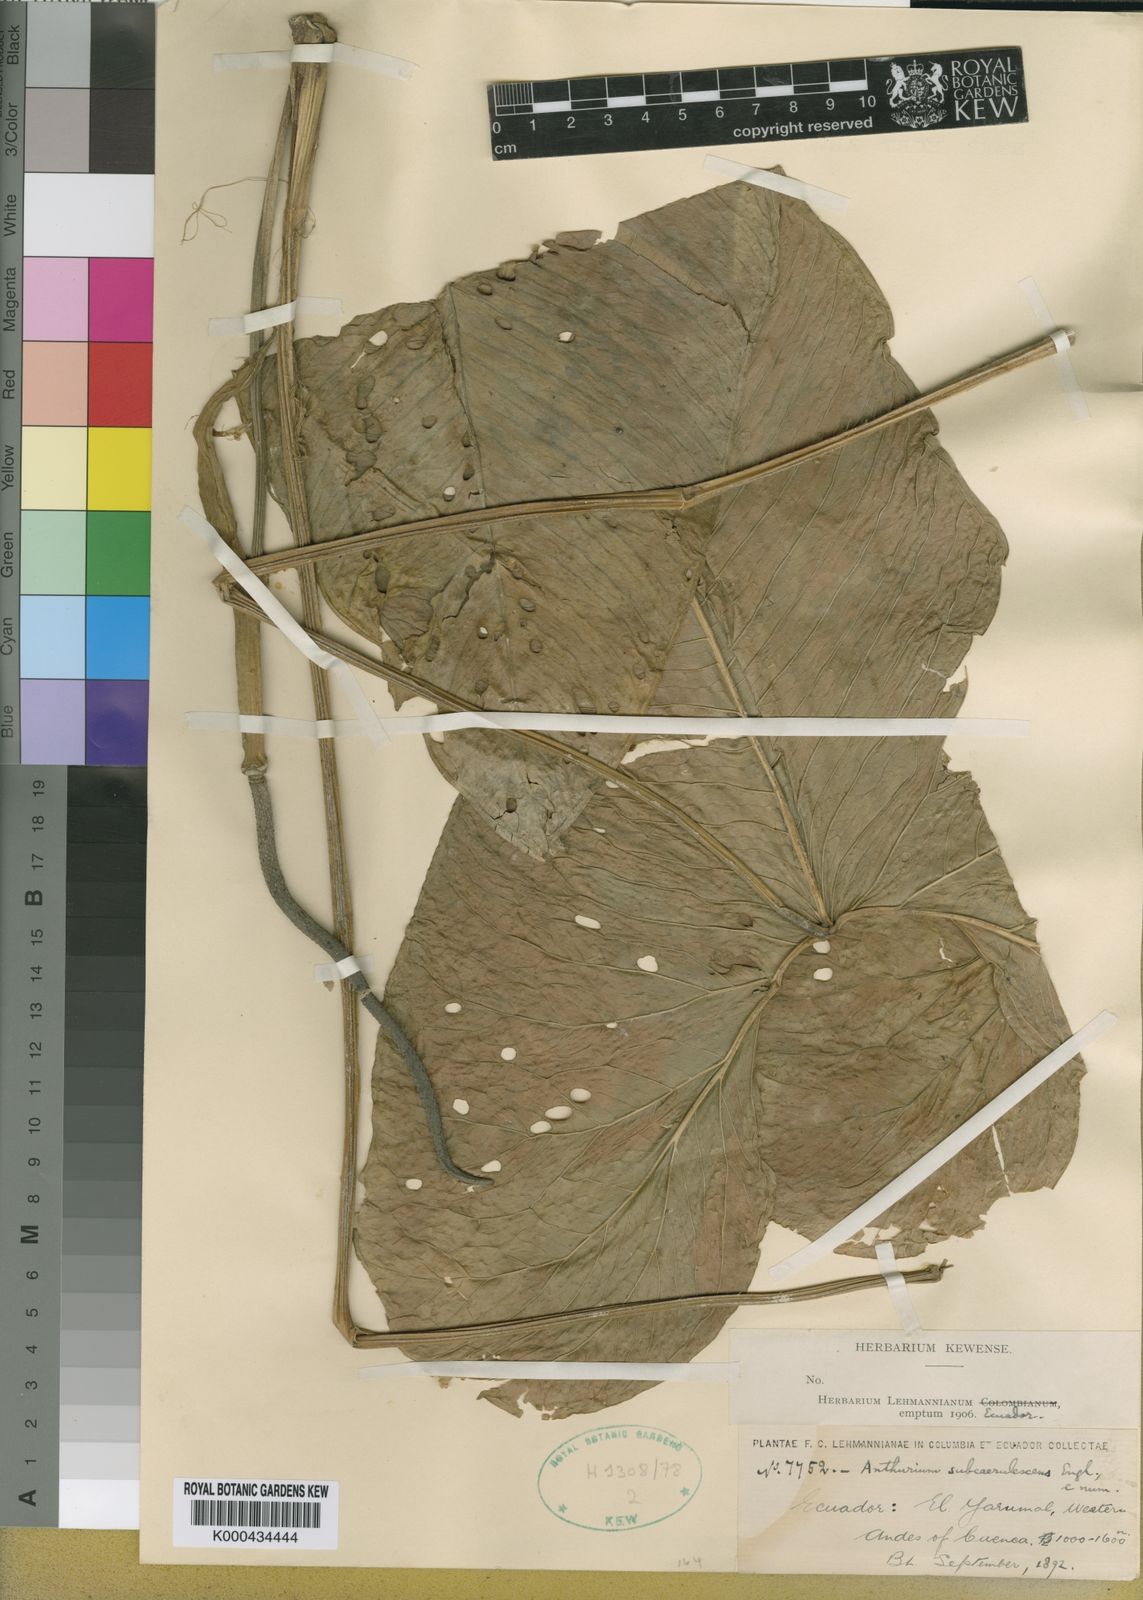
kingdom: Plantae
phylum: Tracheophyta
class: Liliopsida
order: Alismatales
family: Araceae
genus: Anthurium
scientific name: Anthurium subcoerulescens
